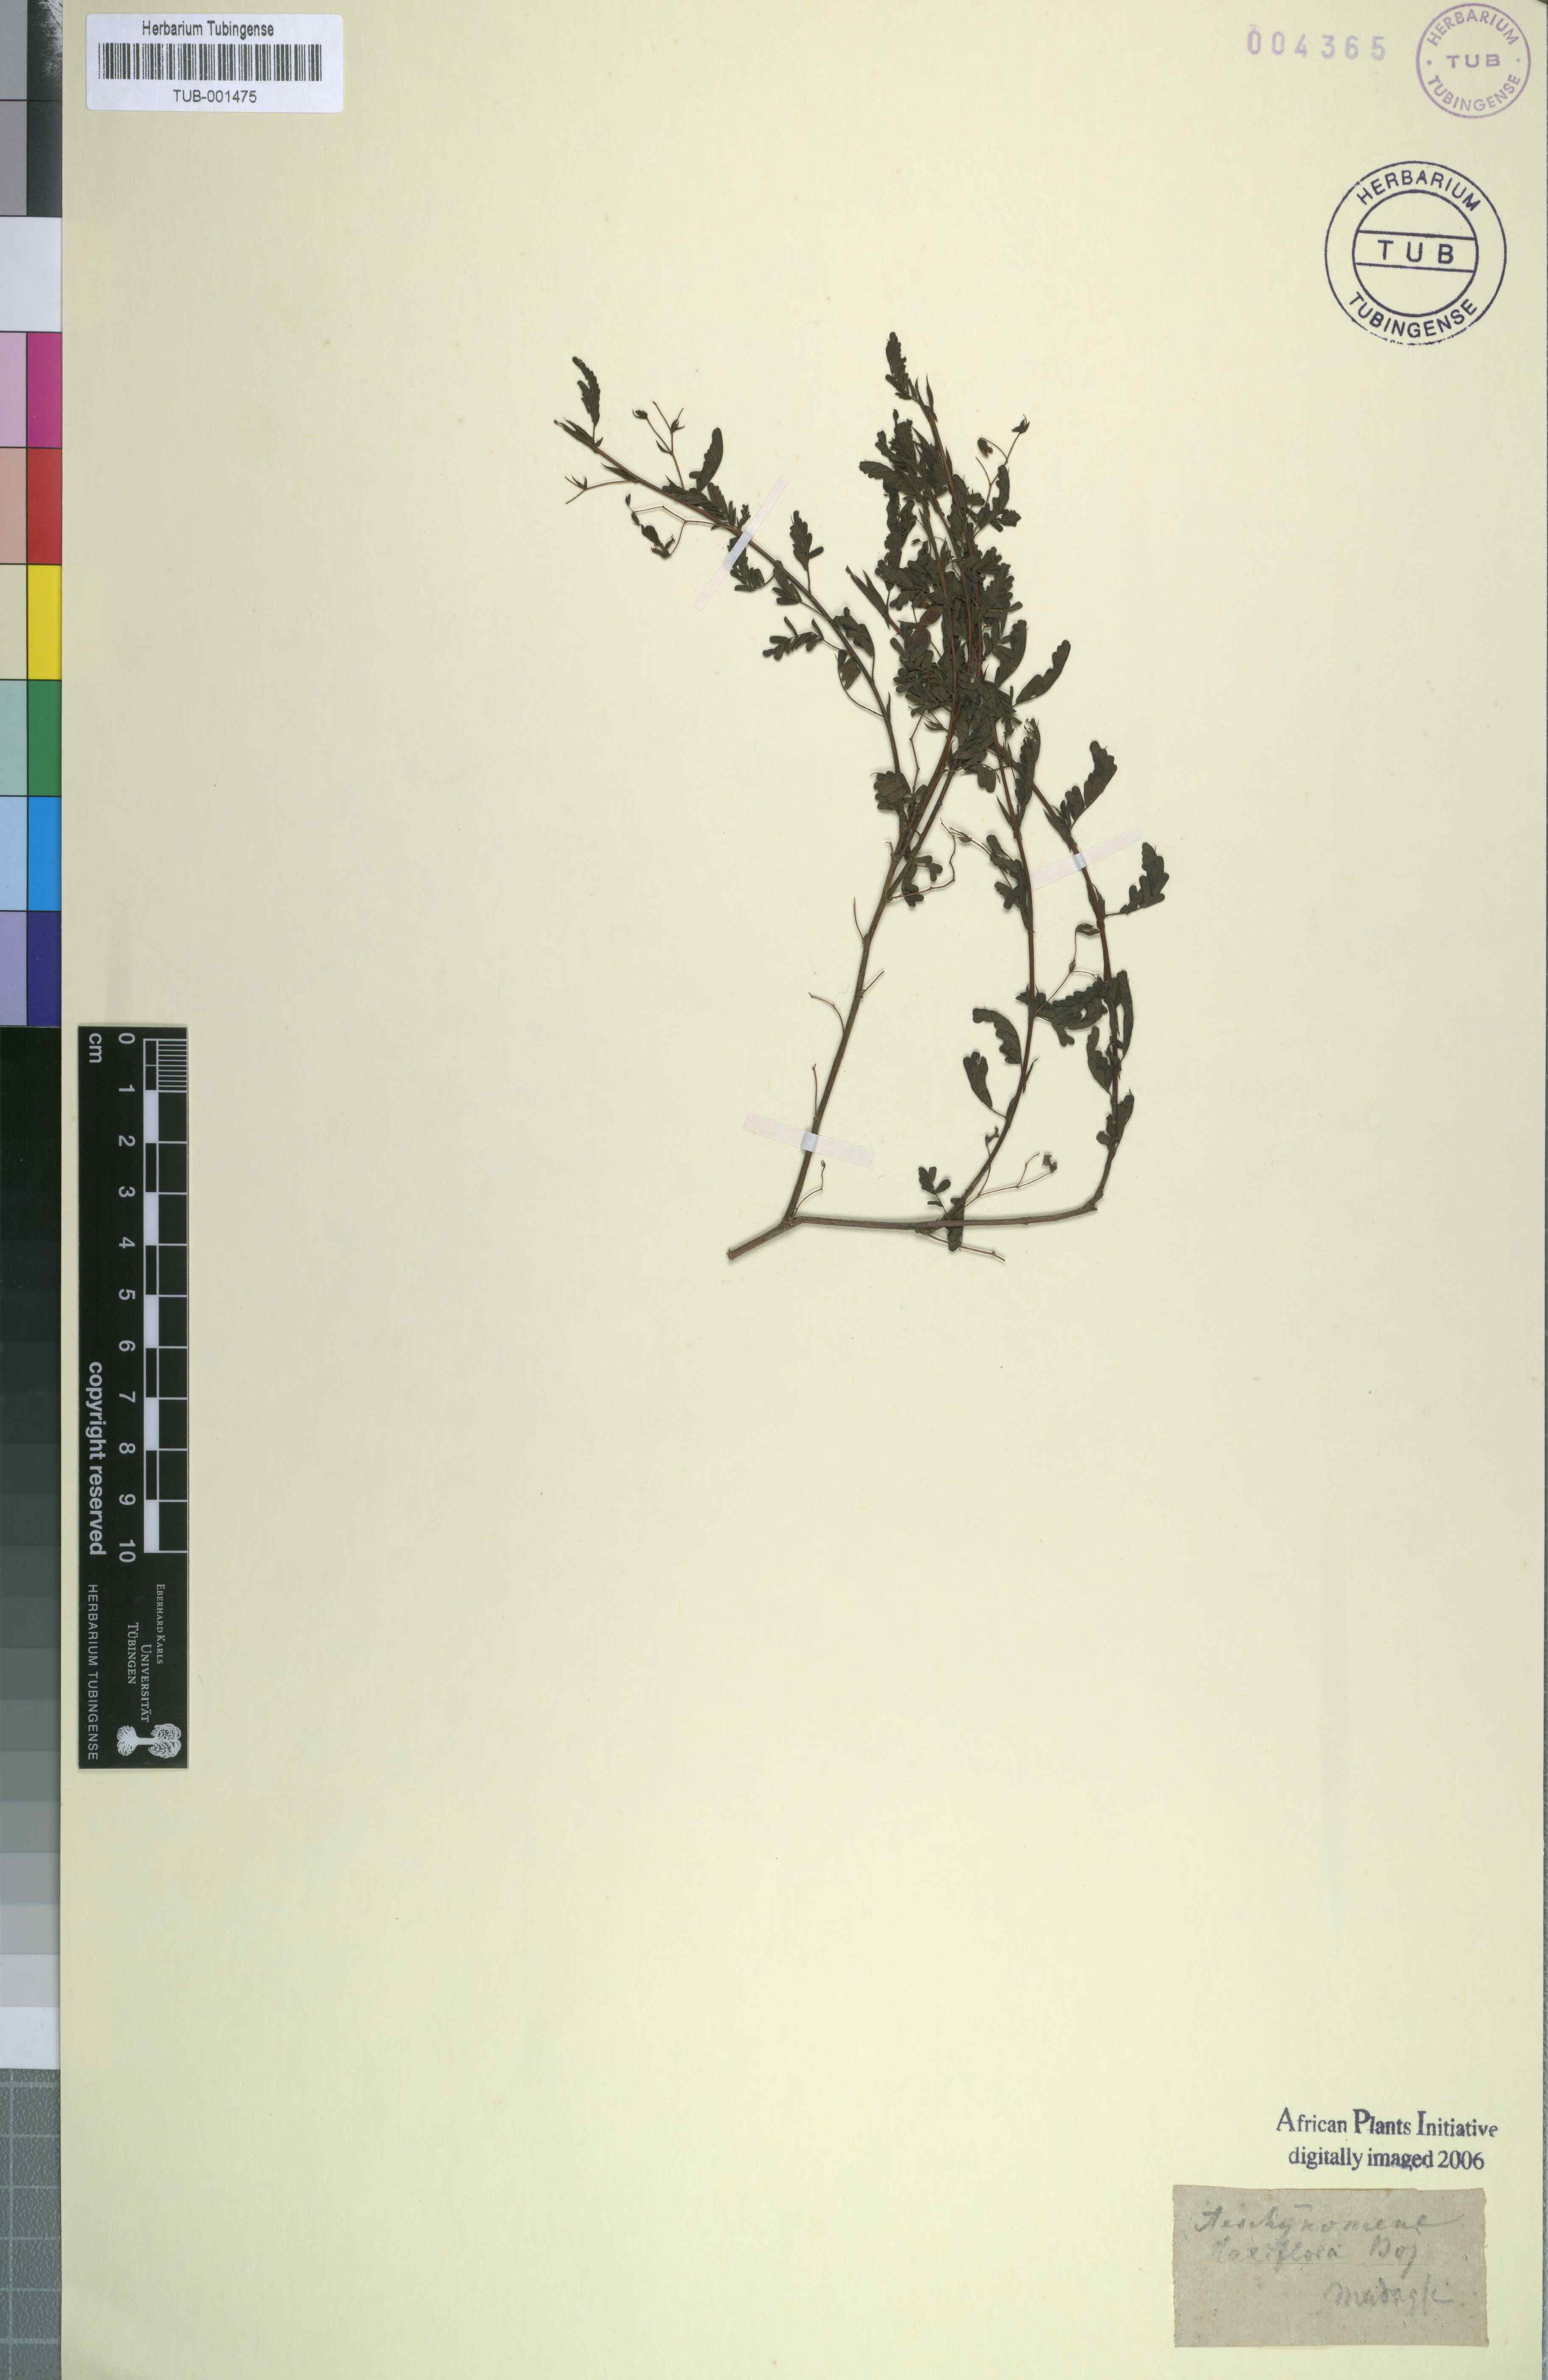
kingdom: Plantae
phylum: Tracheophyta
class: Magnoliopsida
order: Fabales
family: Fabaceae
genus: Aeschynomene
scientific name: Aeschynomene laxiflora
